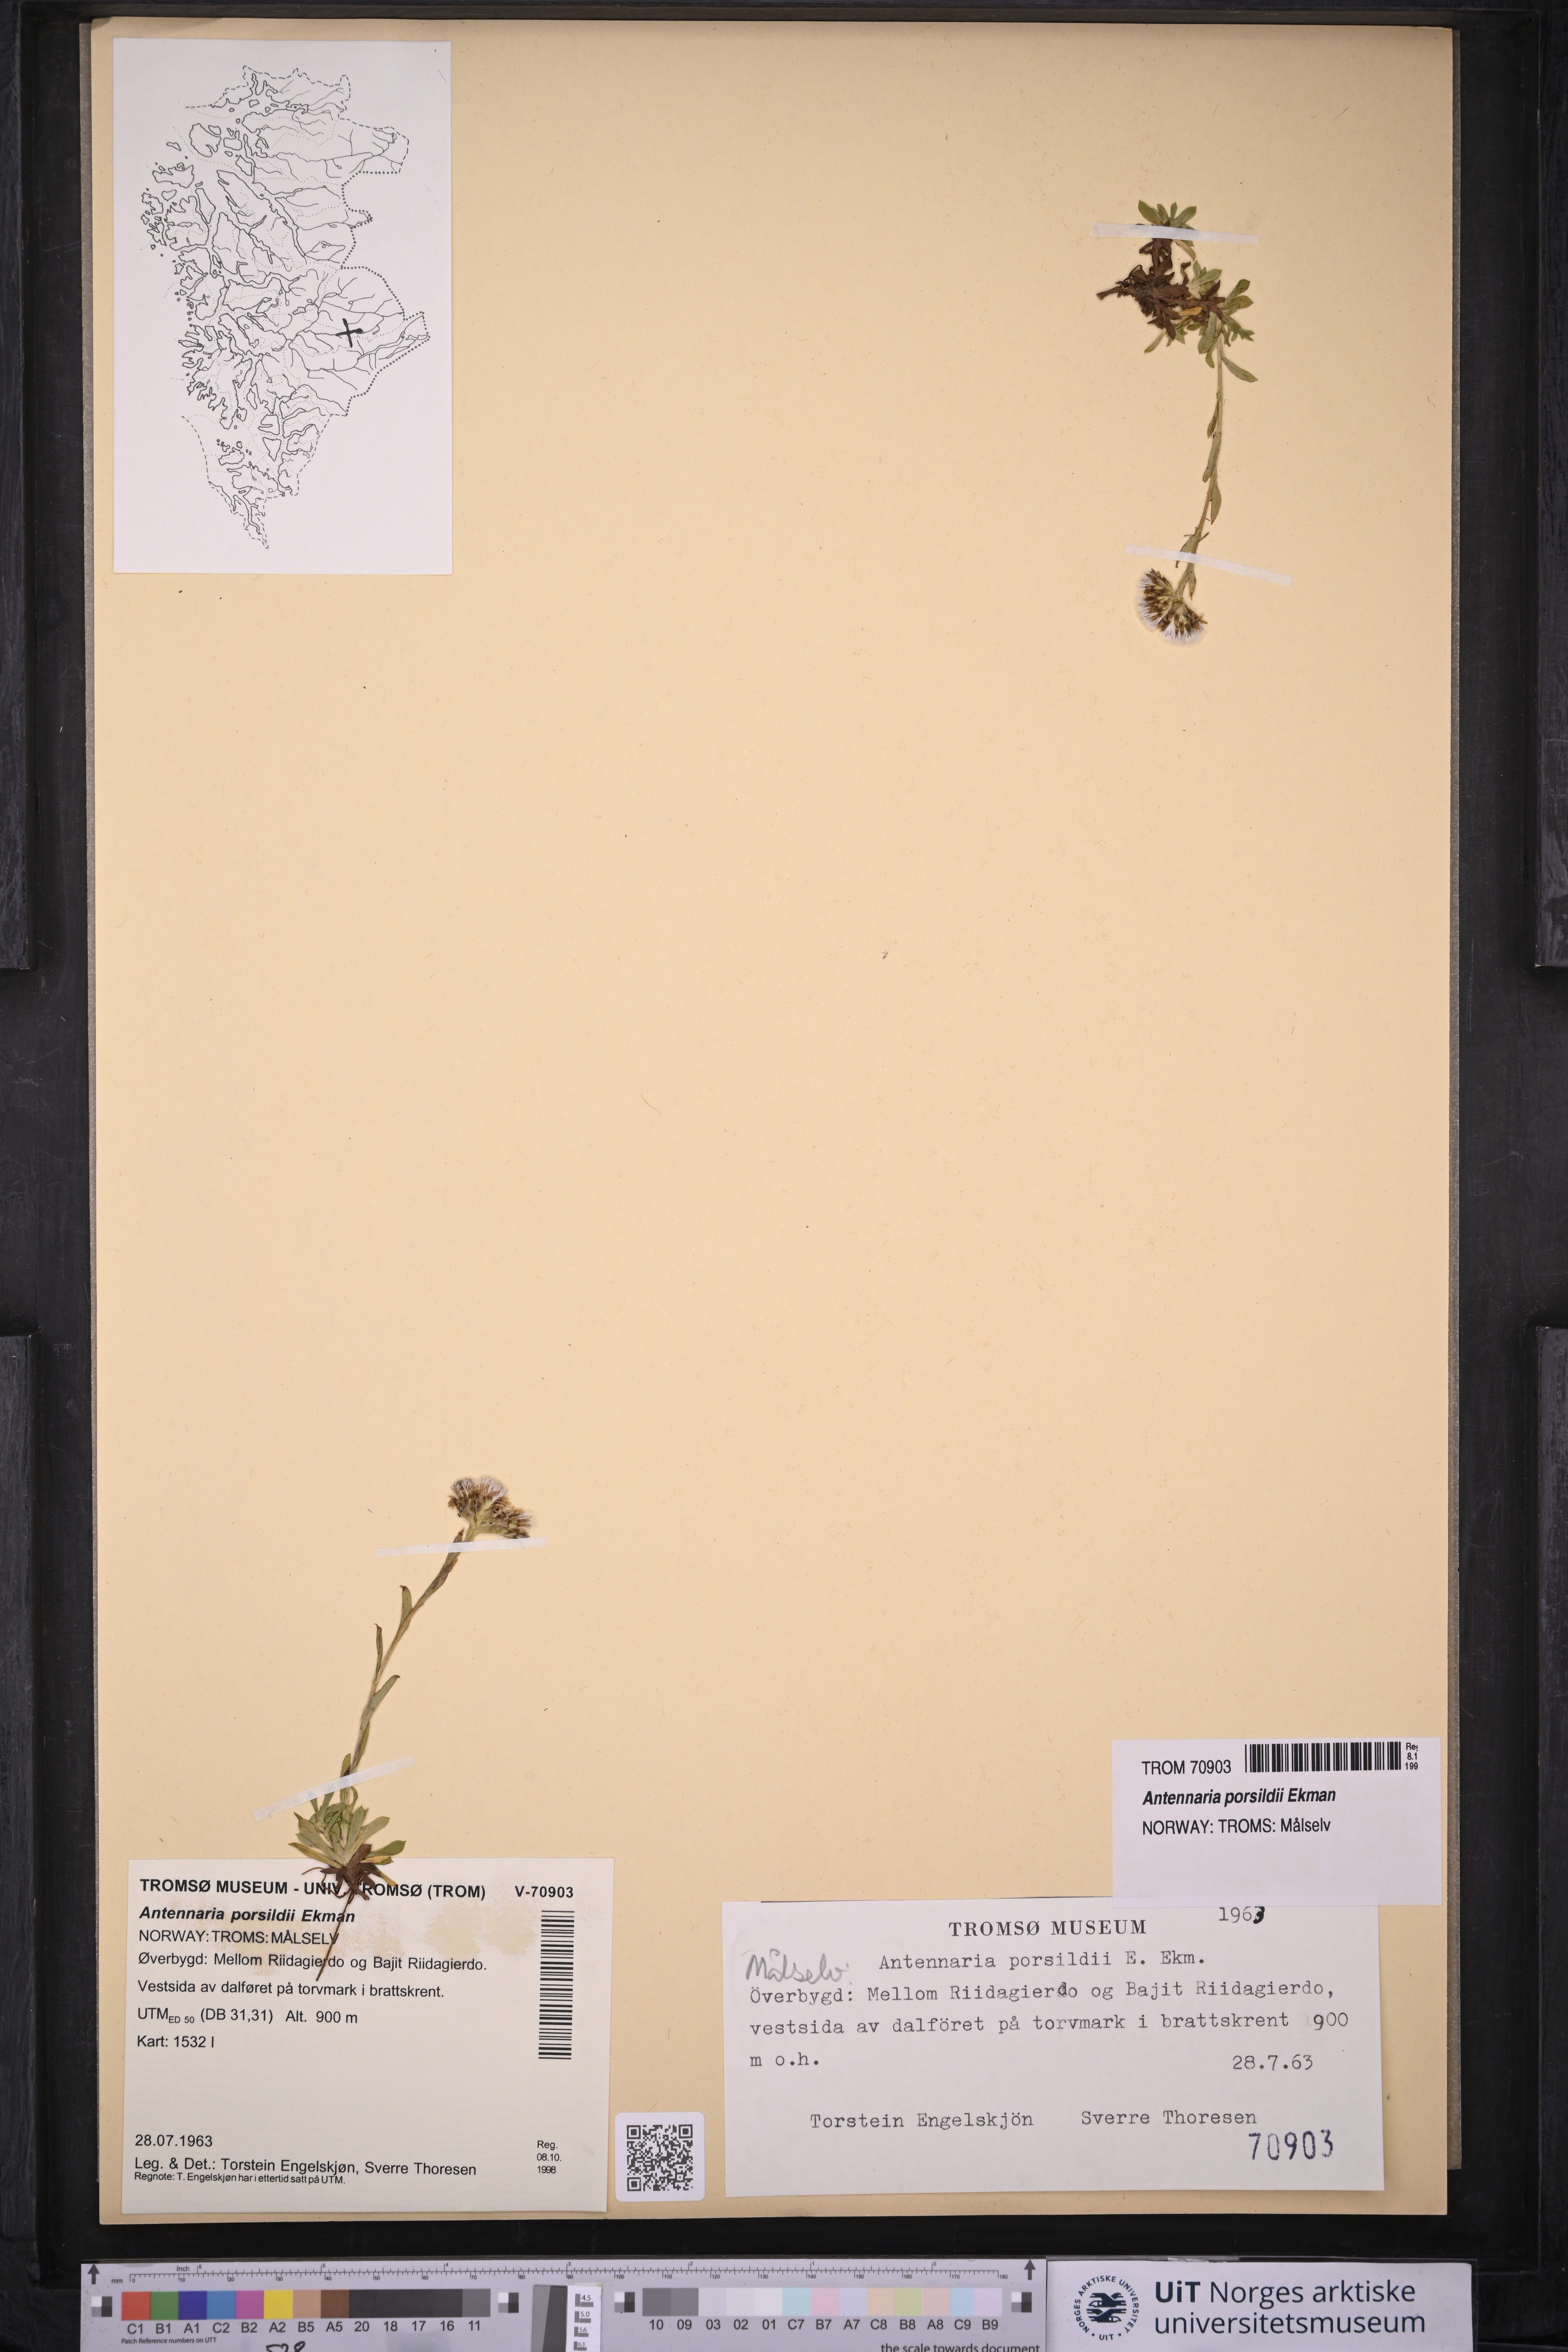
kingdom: Plantae
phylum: Tracheophyta
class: Magnoliopsida
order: Asterales
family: Asteraceae
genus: Antennaria
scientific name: Antennaria porsildii
